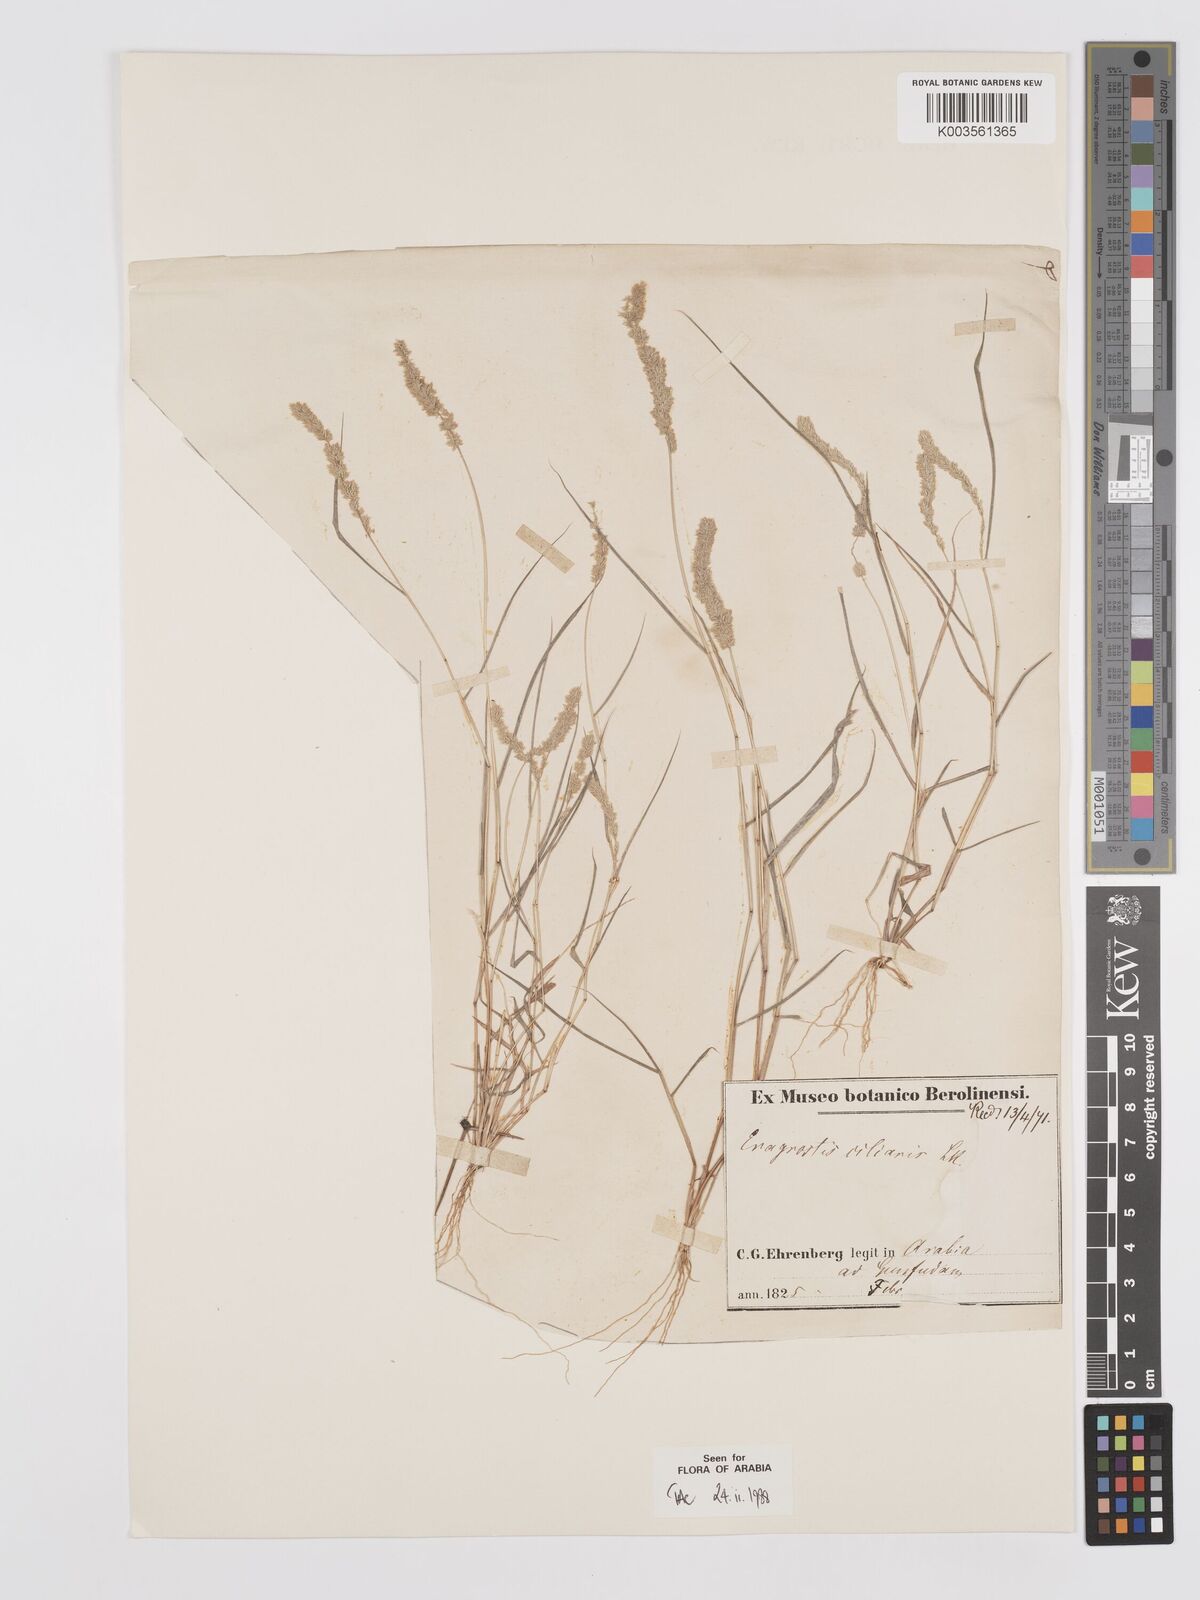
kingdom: Plantae
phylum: Tracheophyta
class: Liliopsida
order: Poales
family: Poaceae
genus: Eragrostis
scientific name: Eragrostis ciliaris
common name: Gophertail lovegrass
